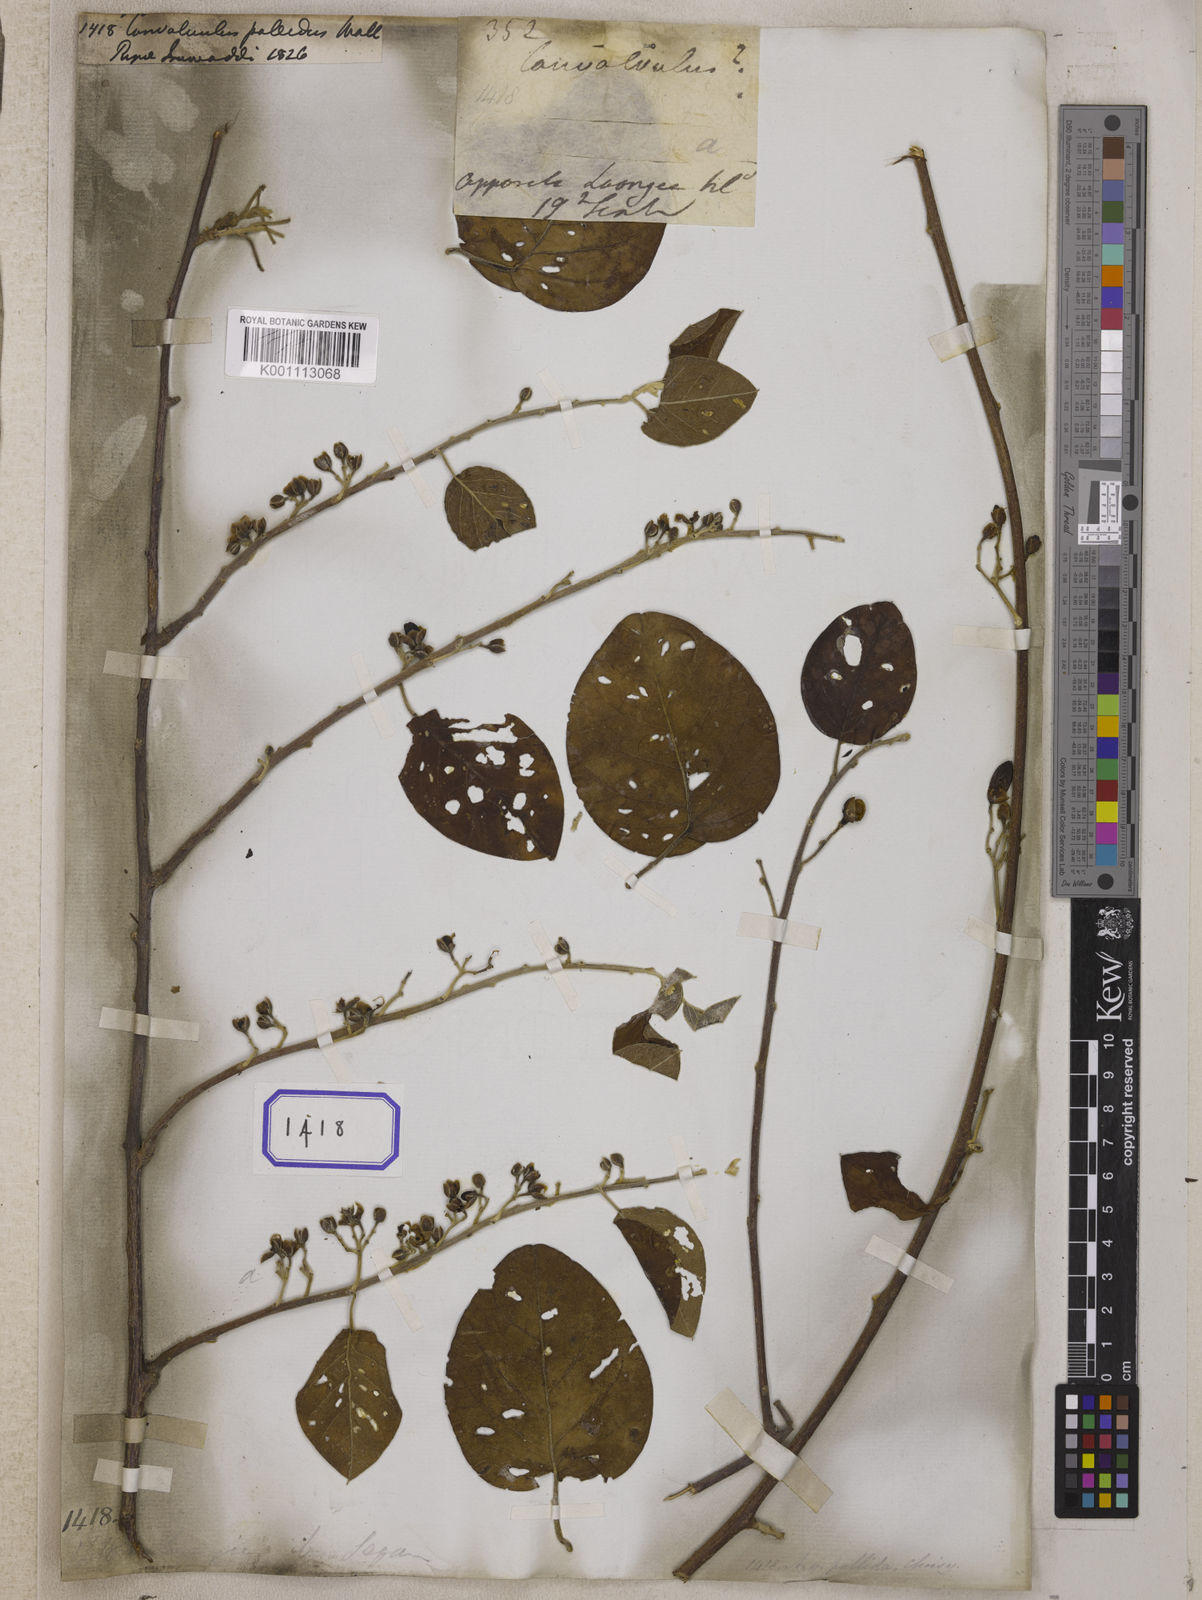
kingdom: Plantae
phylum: Tracheophyta
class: Magnoliopsida
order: Solanales
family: Convolvulaceae
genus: Convolvulus
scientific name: Convolvulus
